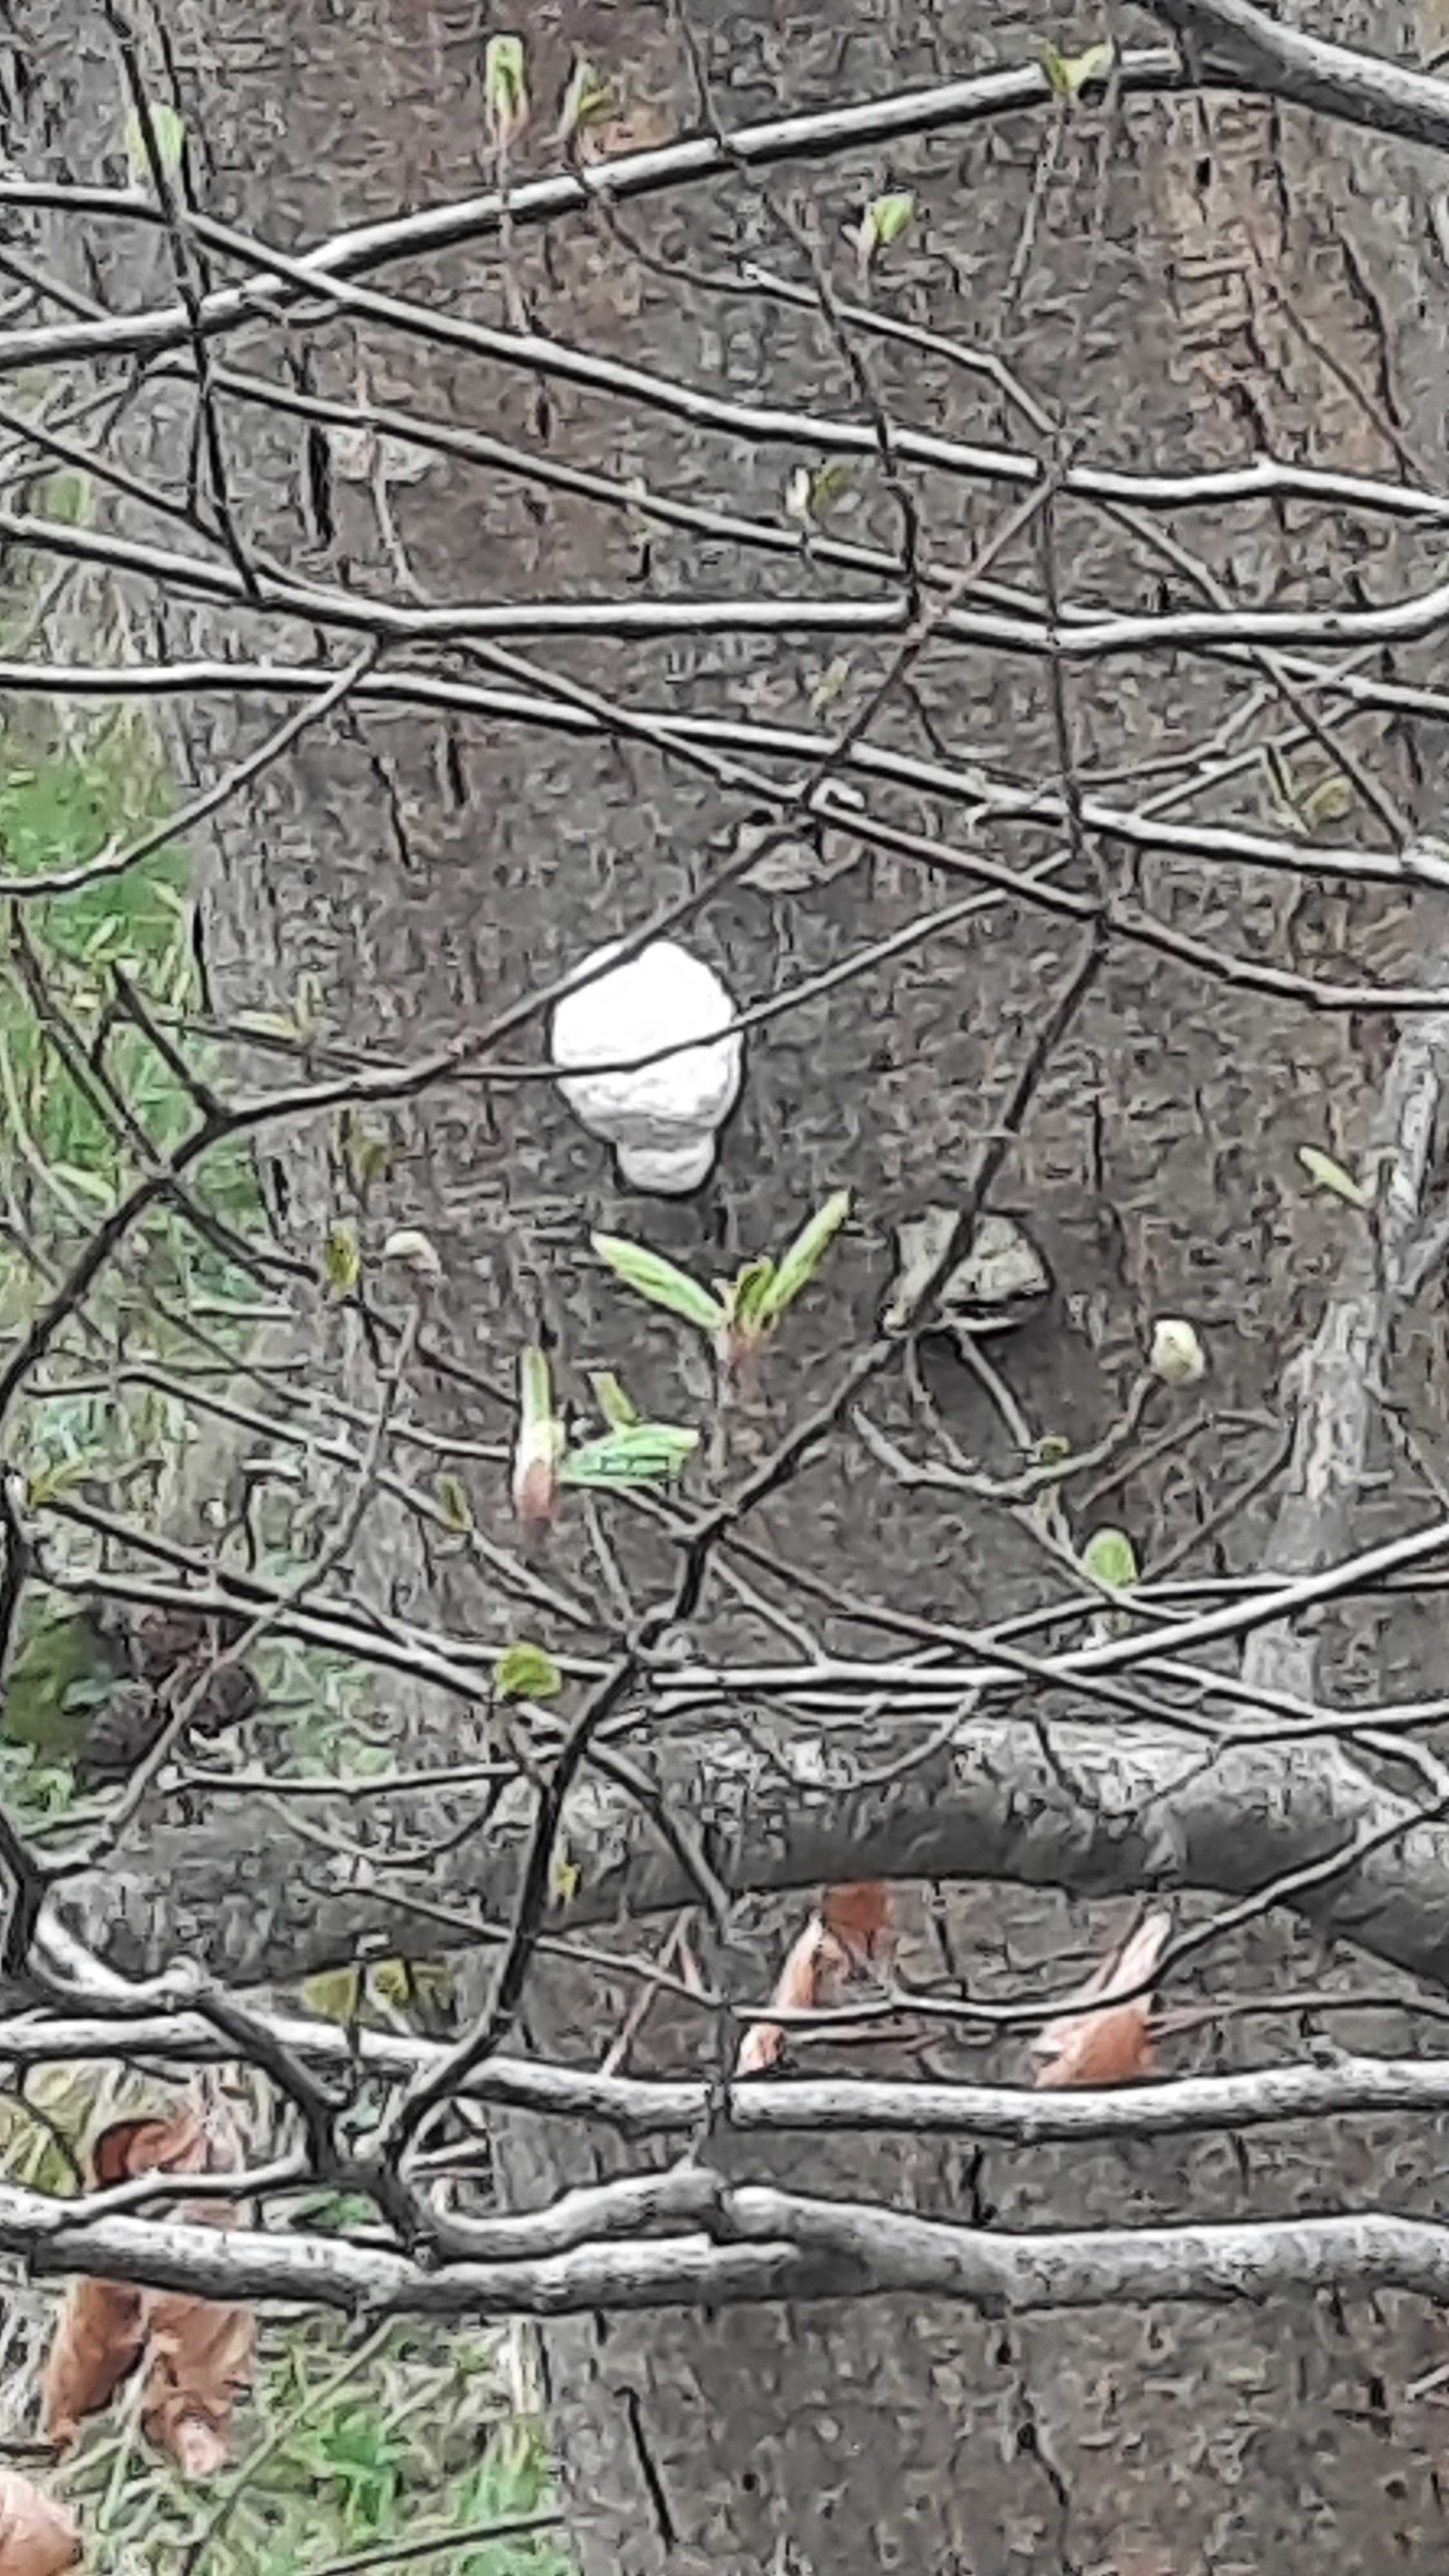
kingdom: Protozoa
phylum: Mycetozoa
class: Myxomycetes
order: Cribrariales
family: Tubiferaceae
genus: Reticularia
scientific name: Reticularia lycoperdon
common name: skinnende støvpude
